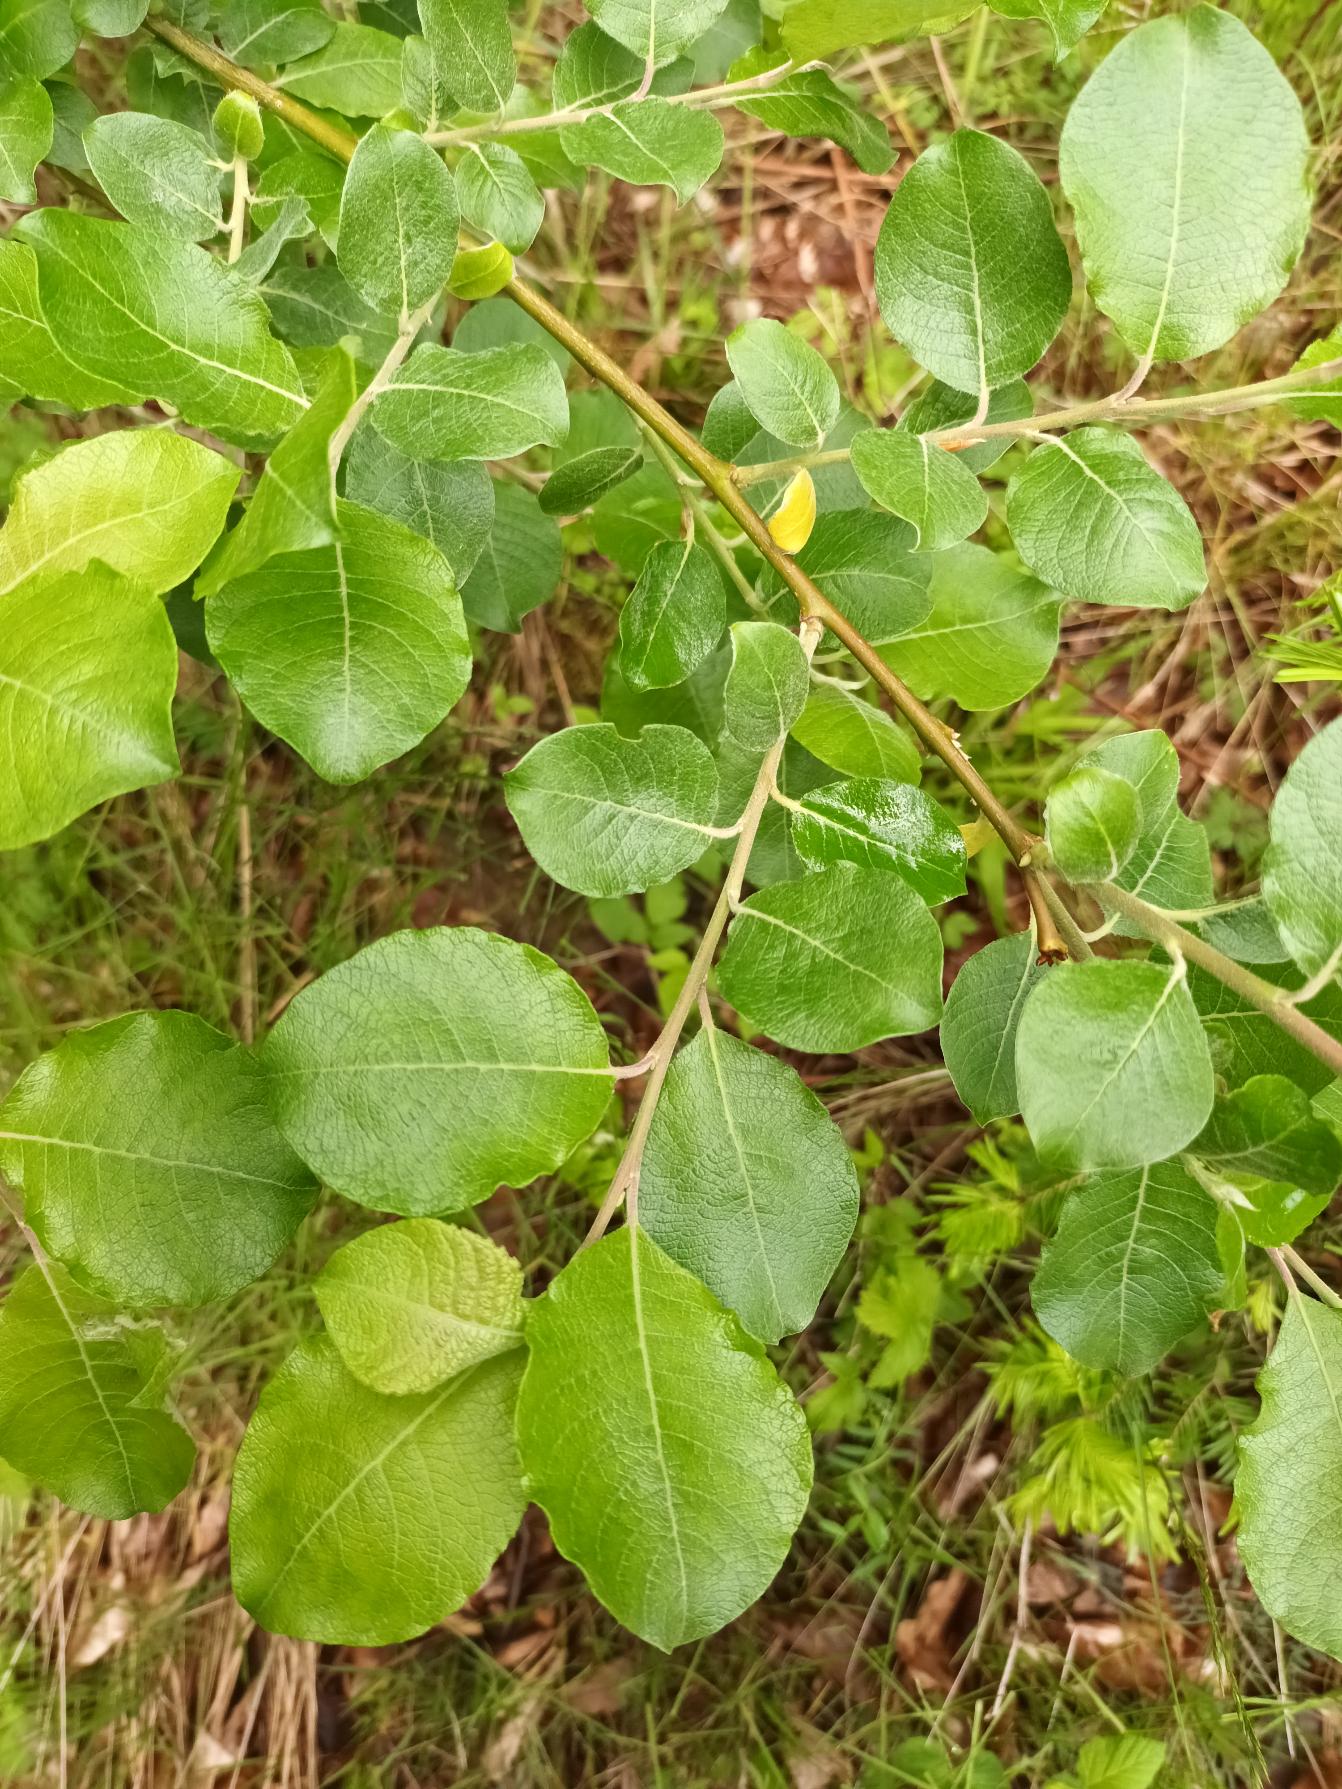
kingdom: Plantae
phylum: Tracheophyta
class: Magnoliopsida
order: Malpighiales
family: Salicaceae
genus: Salix
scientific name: Salix caprea
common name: Selje-pil
